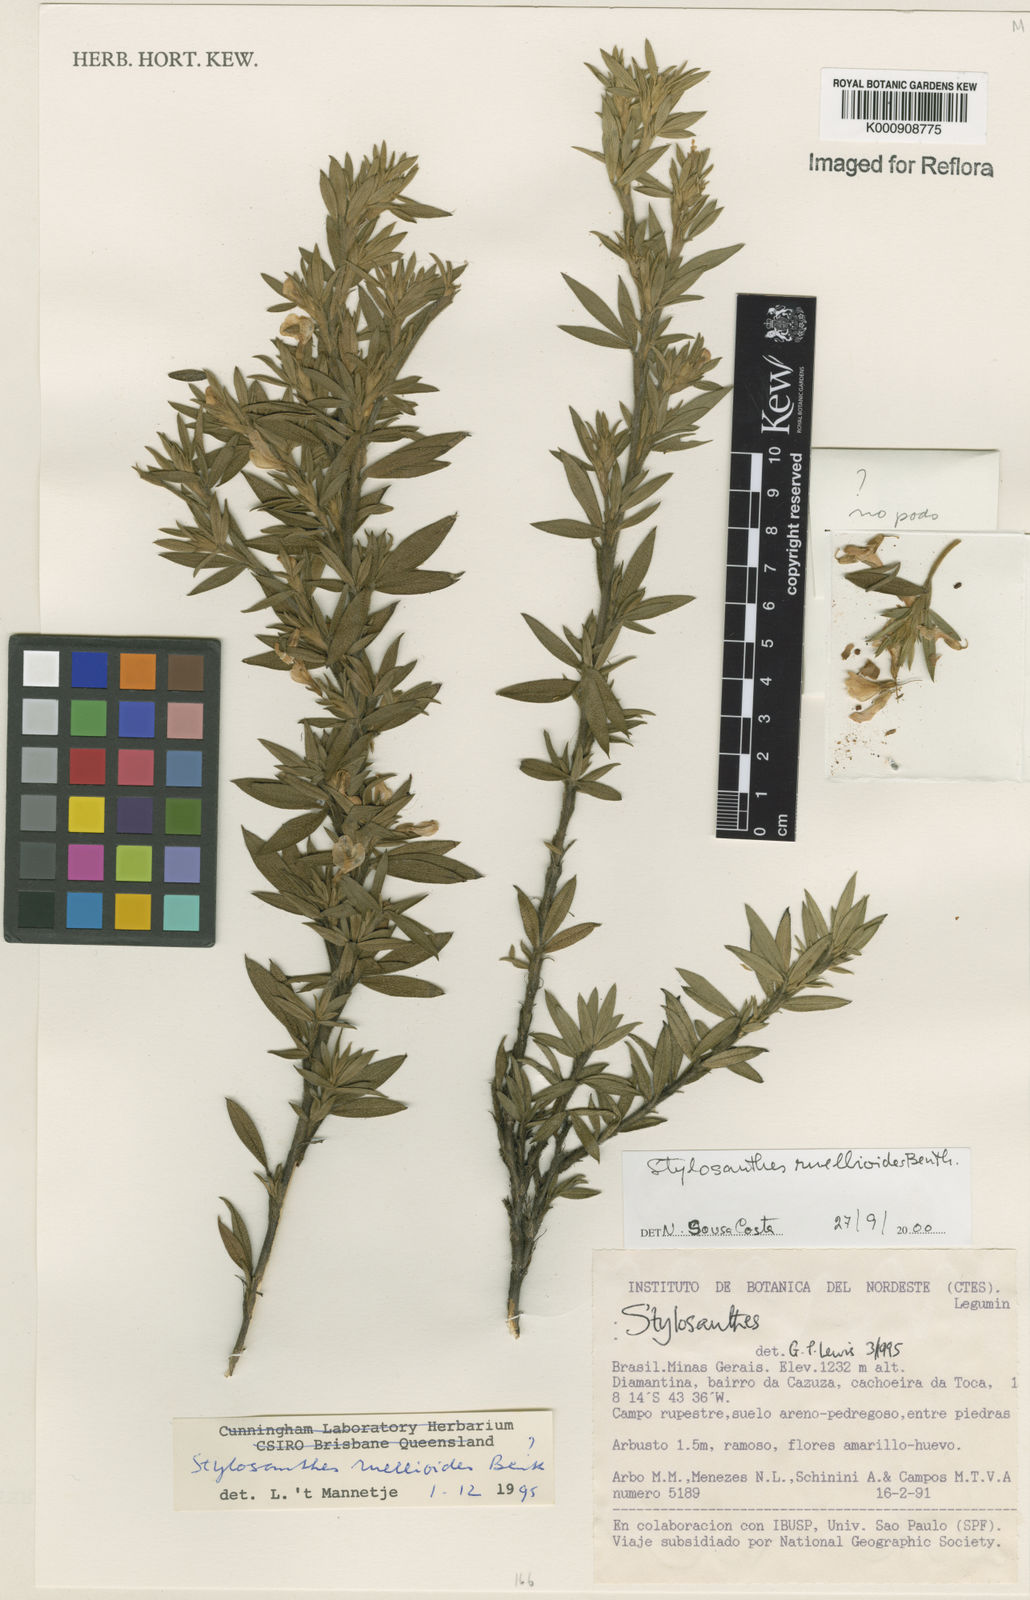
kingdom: Plantae
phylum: Tracheophyta
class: Magnoliopsida
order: Fabales
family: Fabaceae
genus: Stylosanthes
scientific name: Stylosanthes ruellioides
